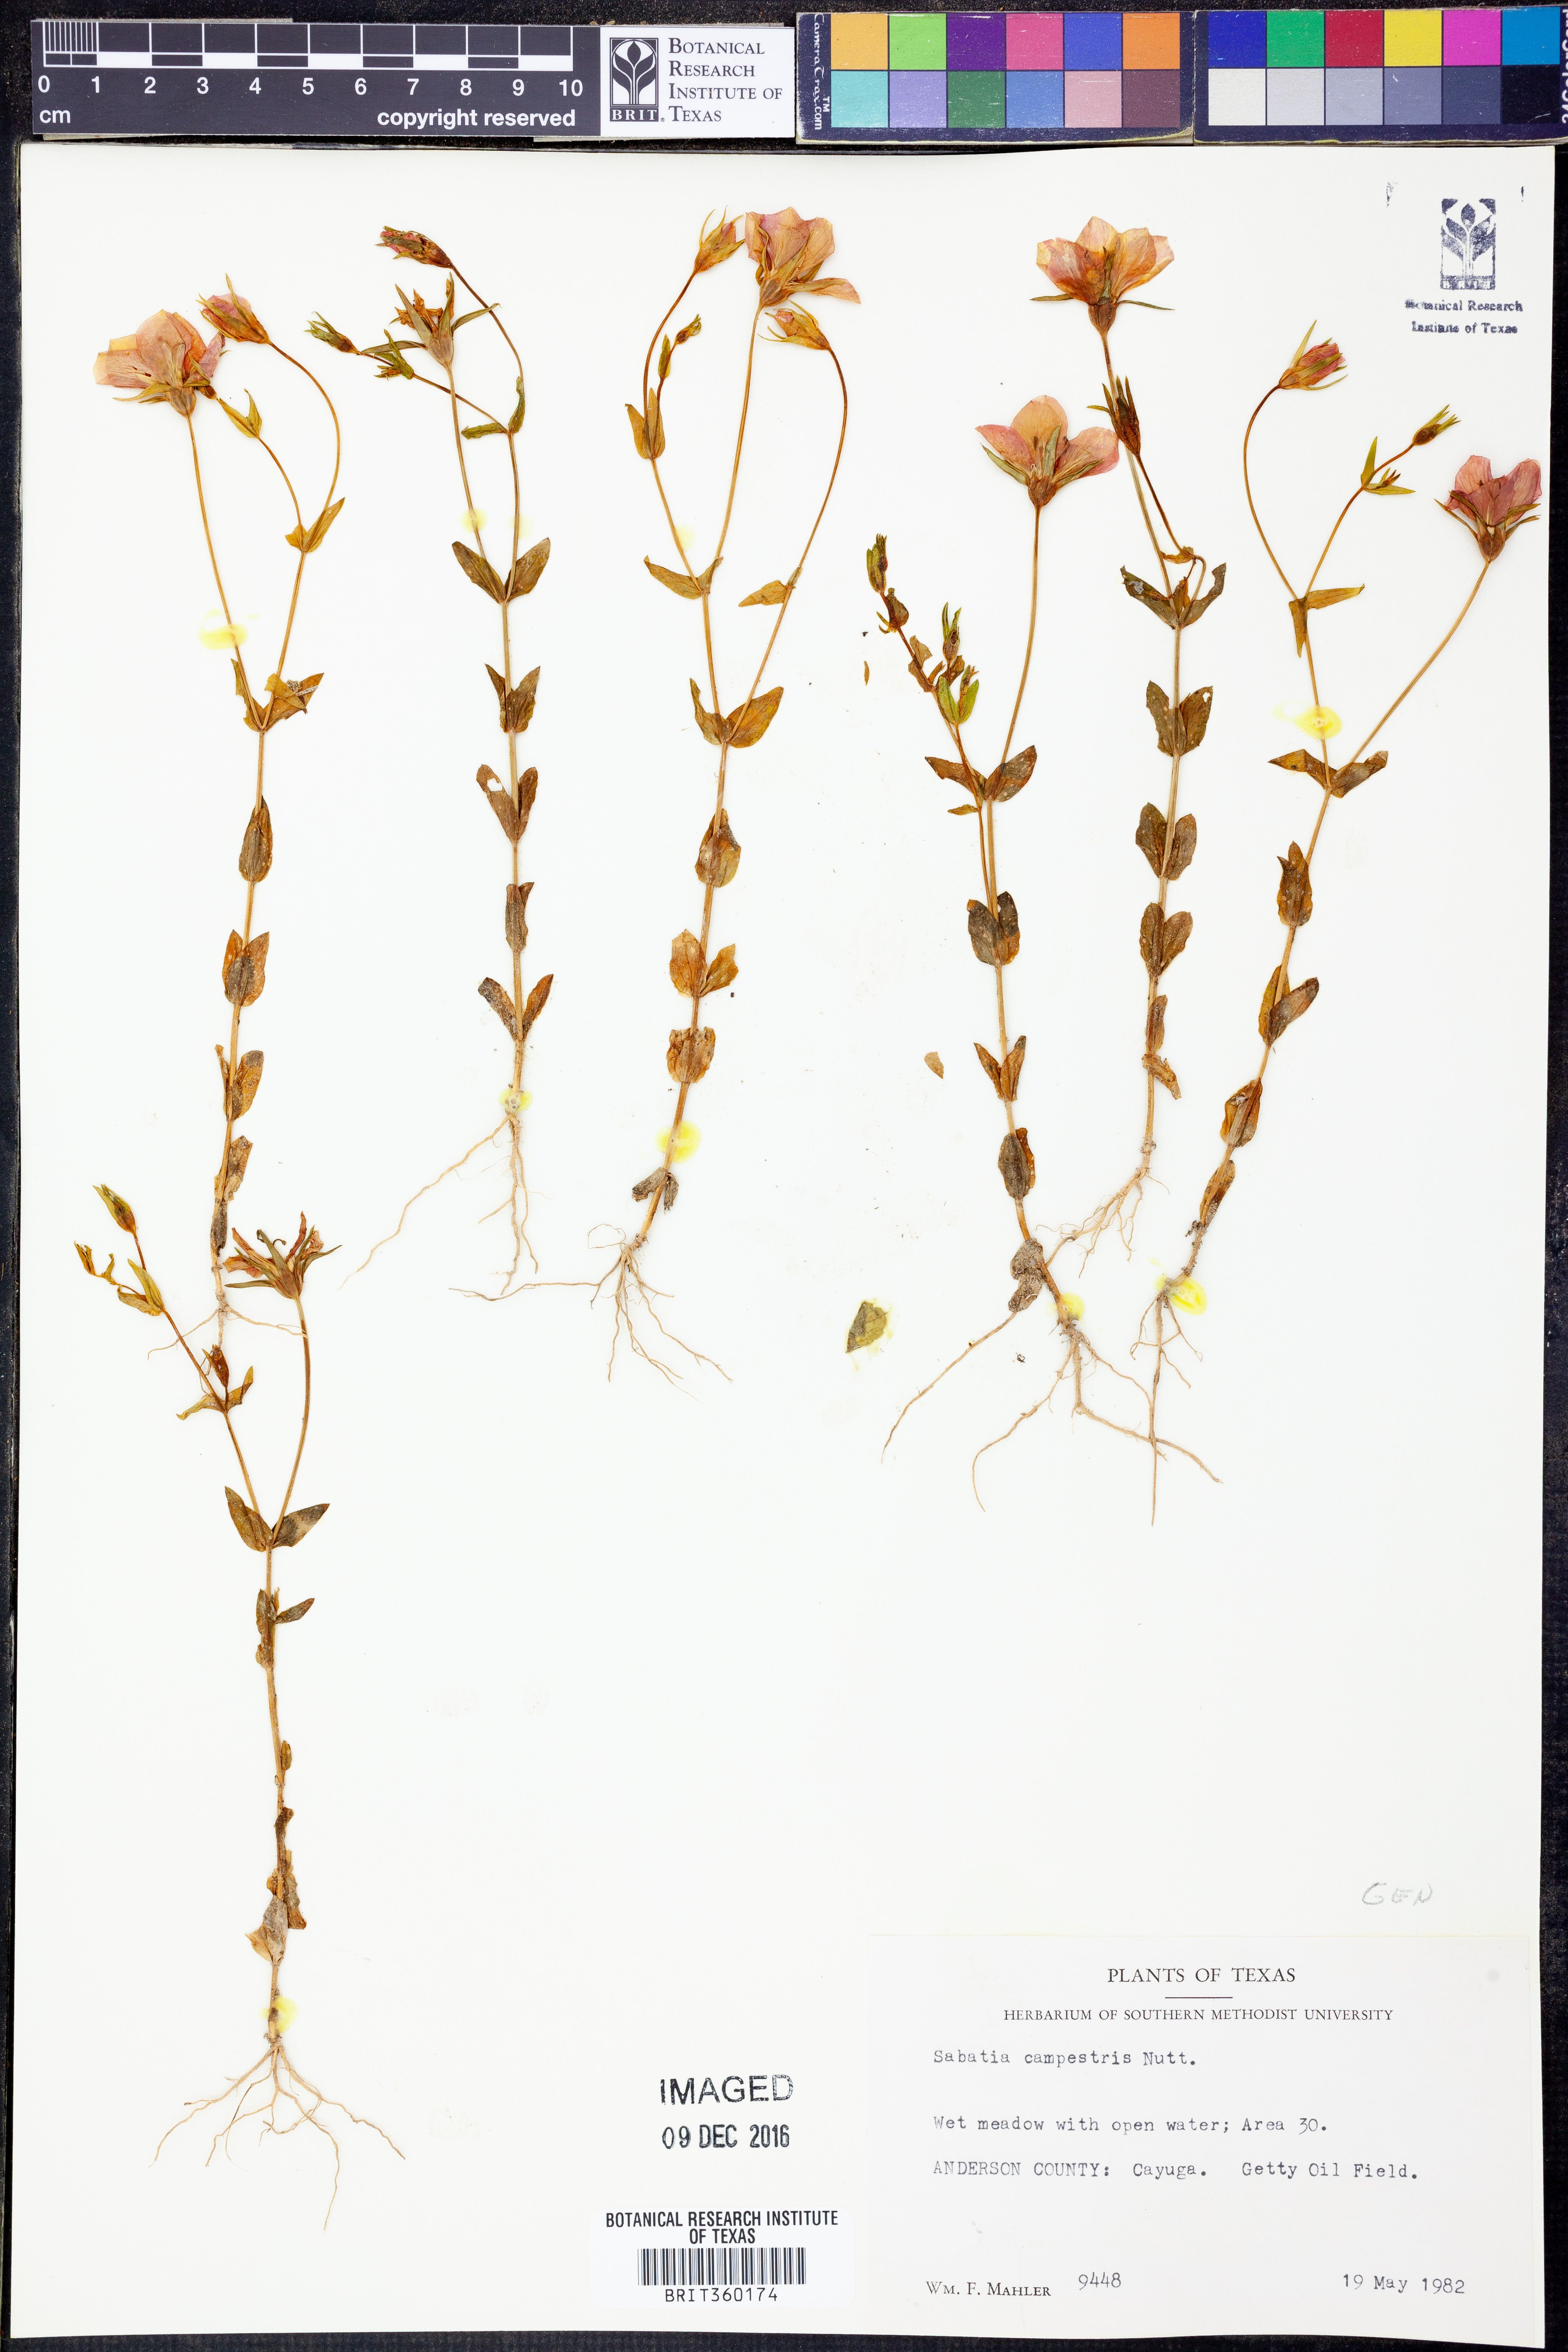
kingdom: Plantae
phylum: Tracheophyta
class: Magnoliopsida
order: Gentianales
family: Gentianaceae
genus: Sabatia
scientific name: Sabatia campestris
